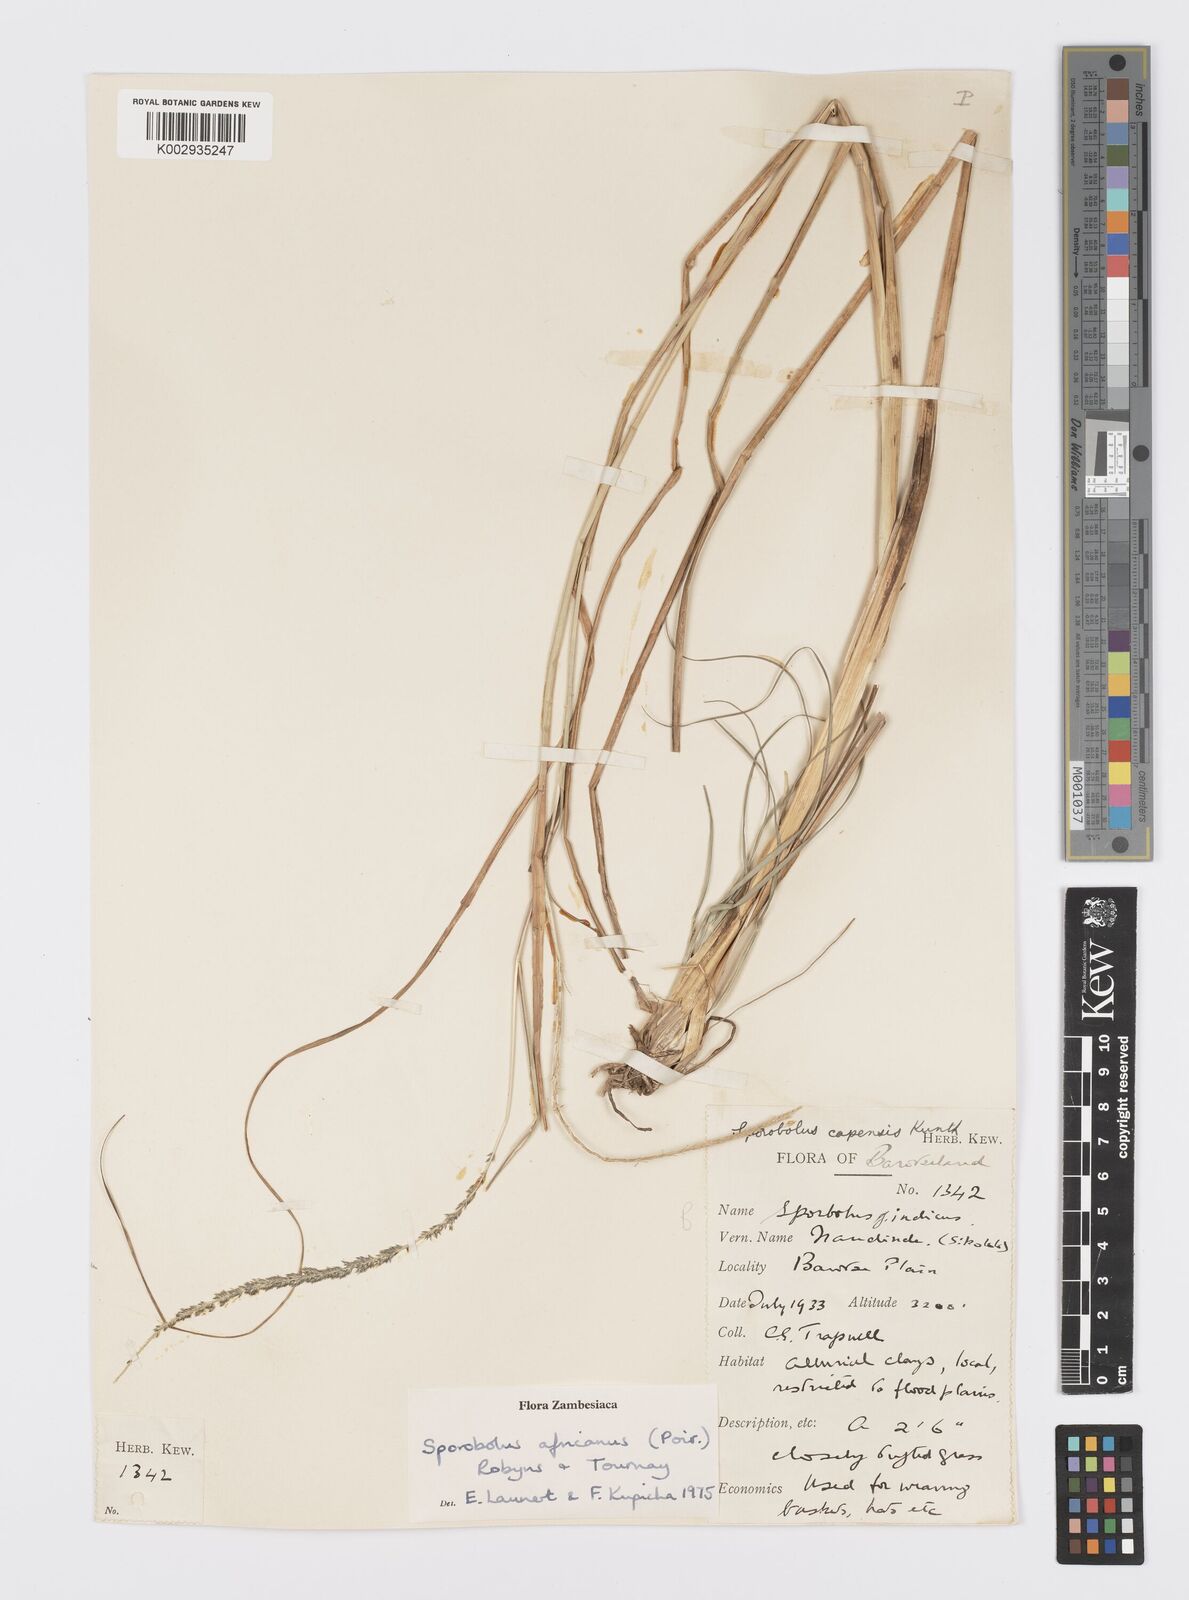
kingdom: Plantae
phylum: Tracheophyta
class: Liliopsida
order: Poales
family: Poaceae
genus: Sporobolus
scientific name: Sporobolus africanus
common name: African dropseed
